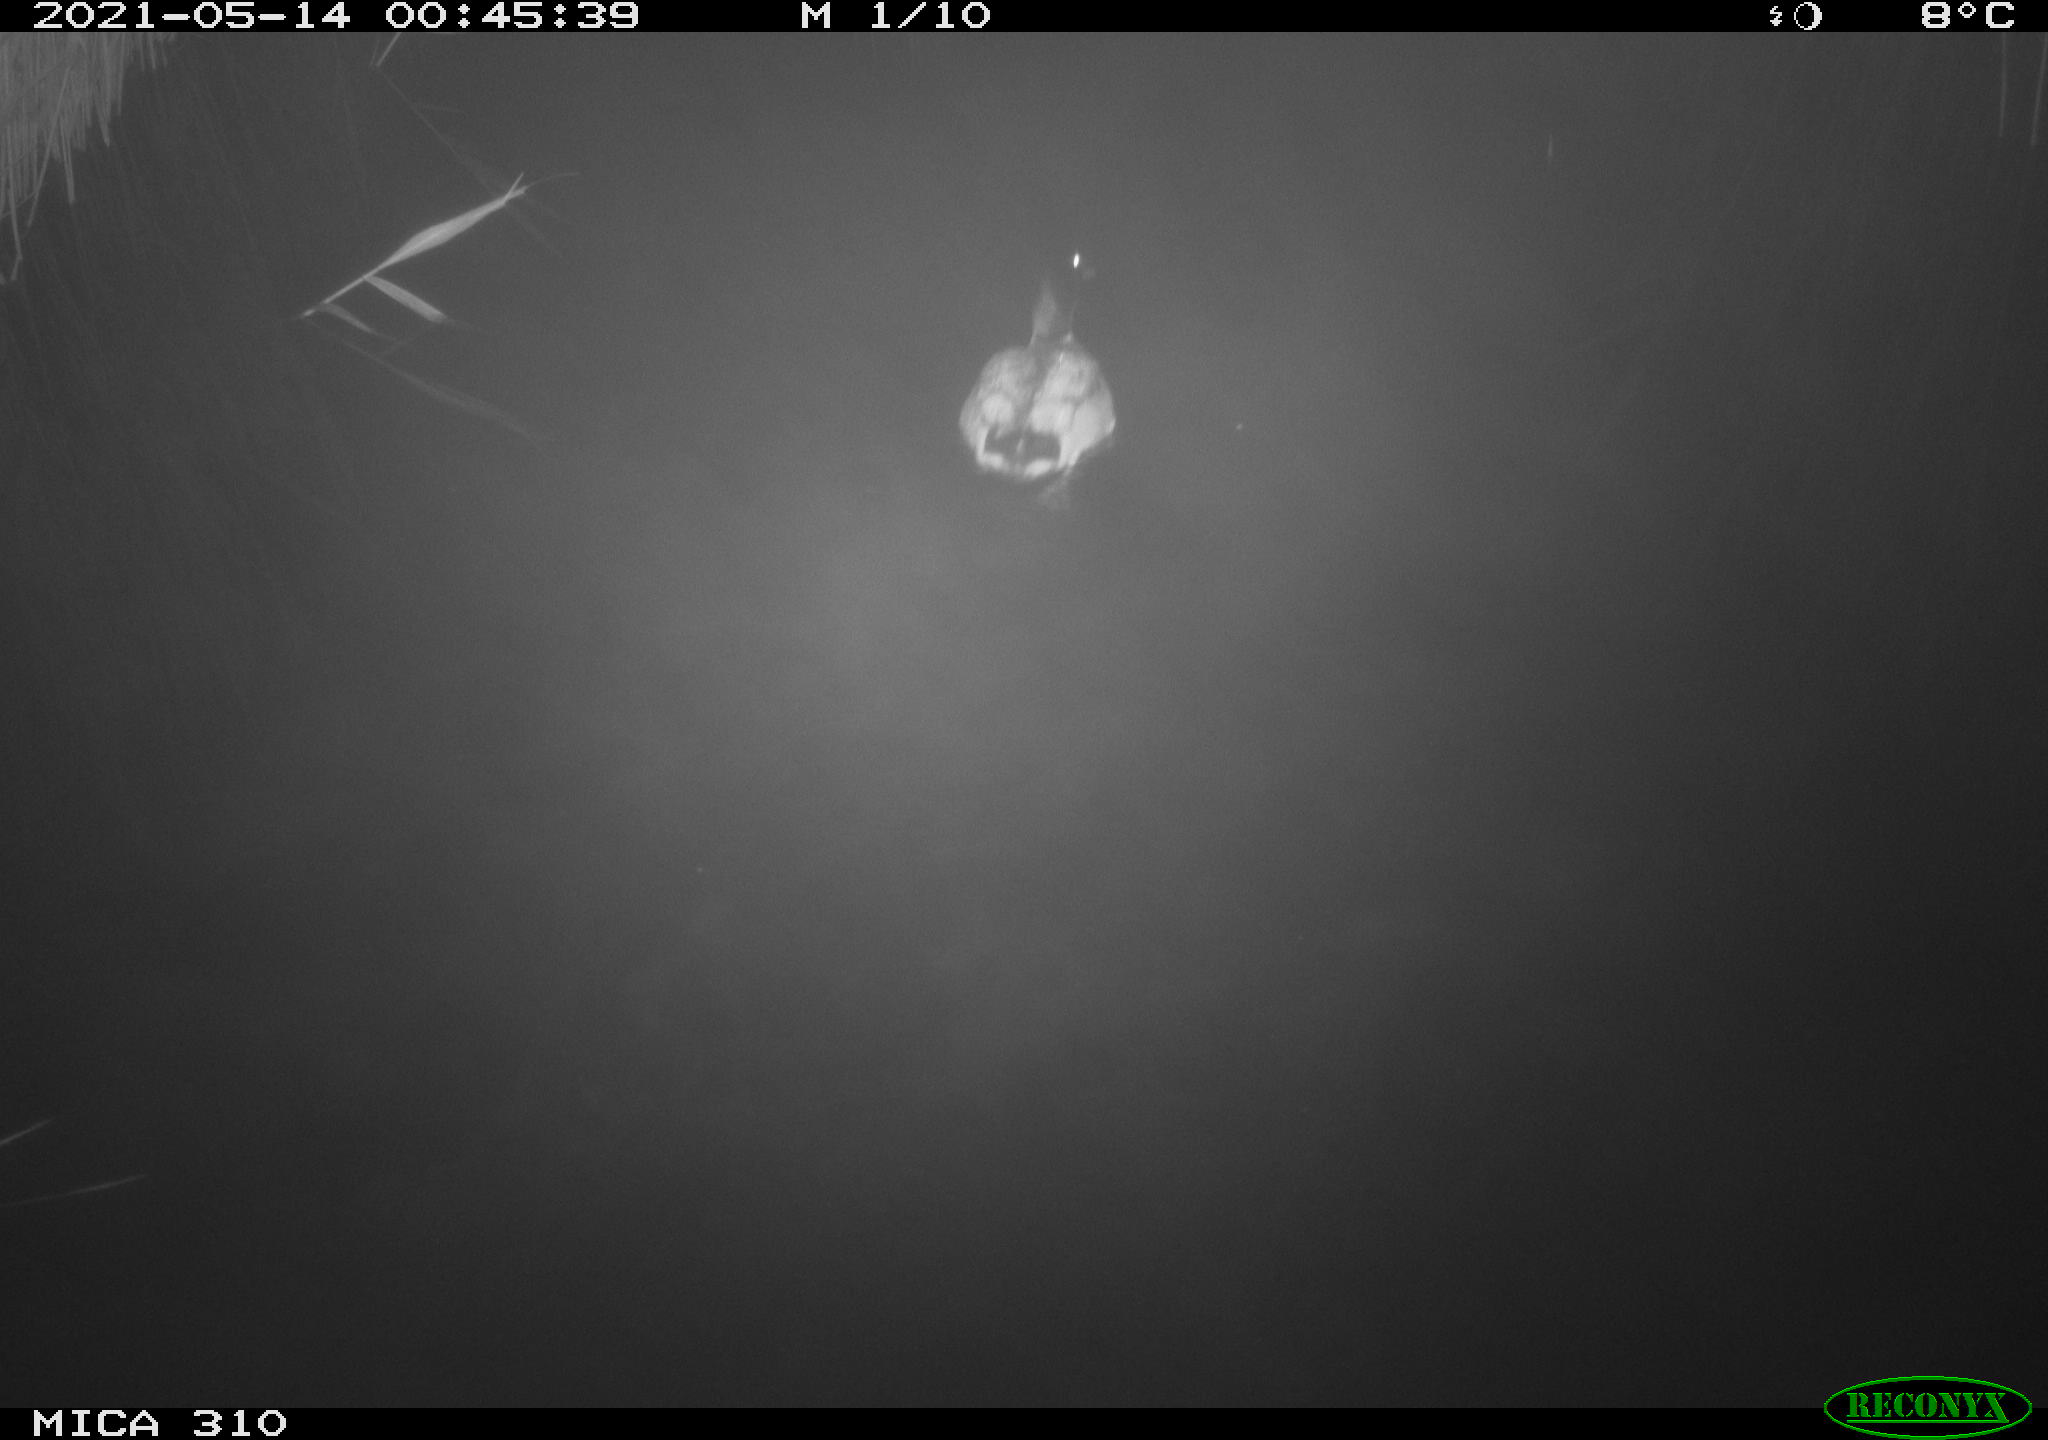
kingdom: Animalia
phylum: Chordata
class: Aves
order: Anseriformes
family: Anatidae
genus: Anas
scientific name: Anas platyrhynchos
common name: Mallard
